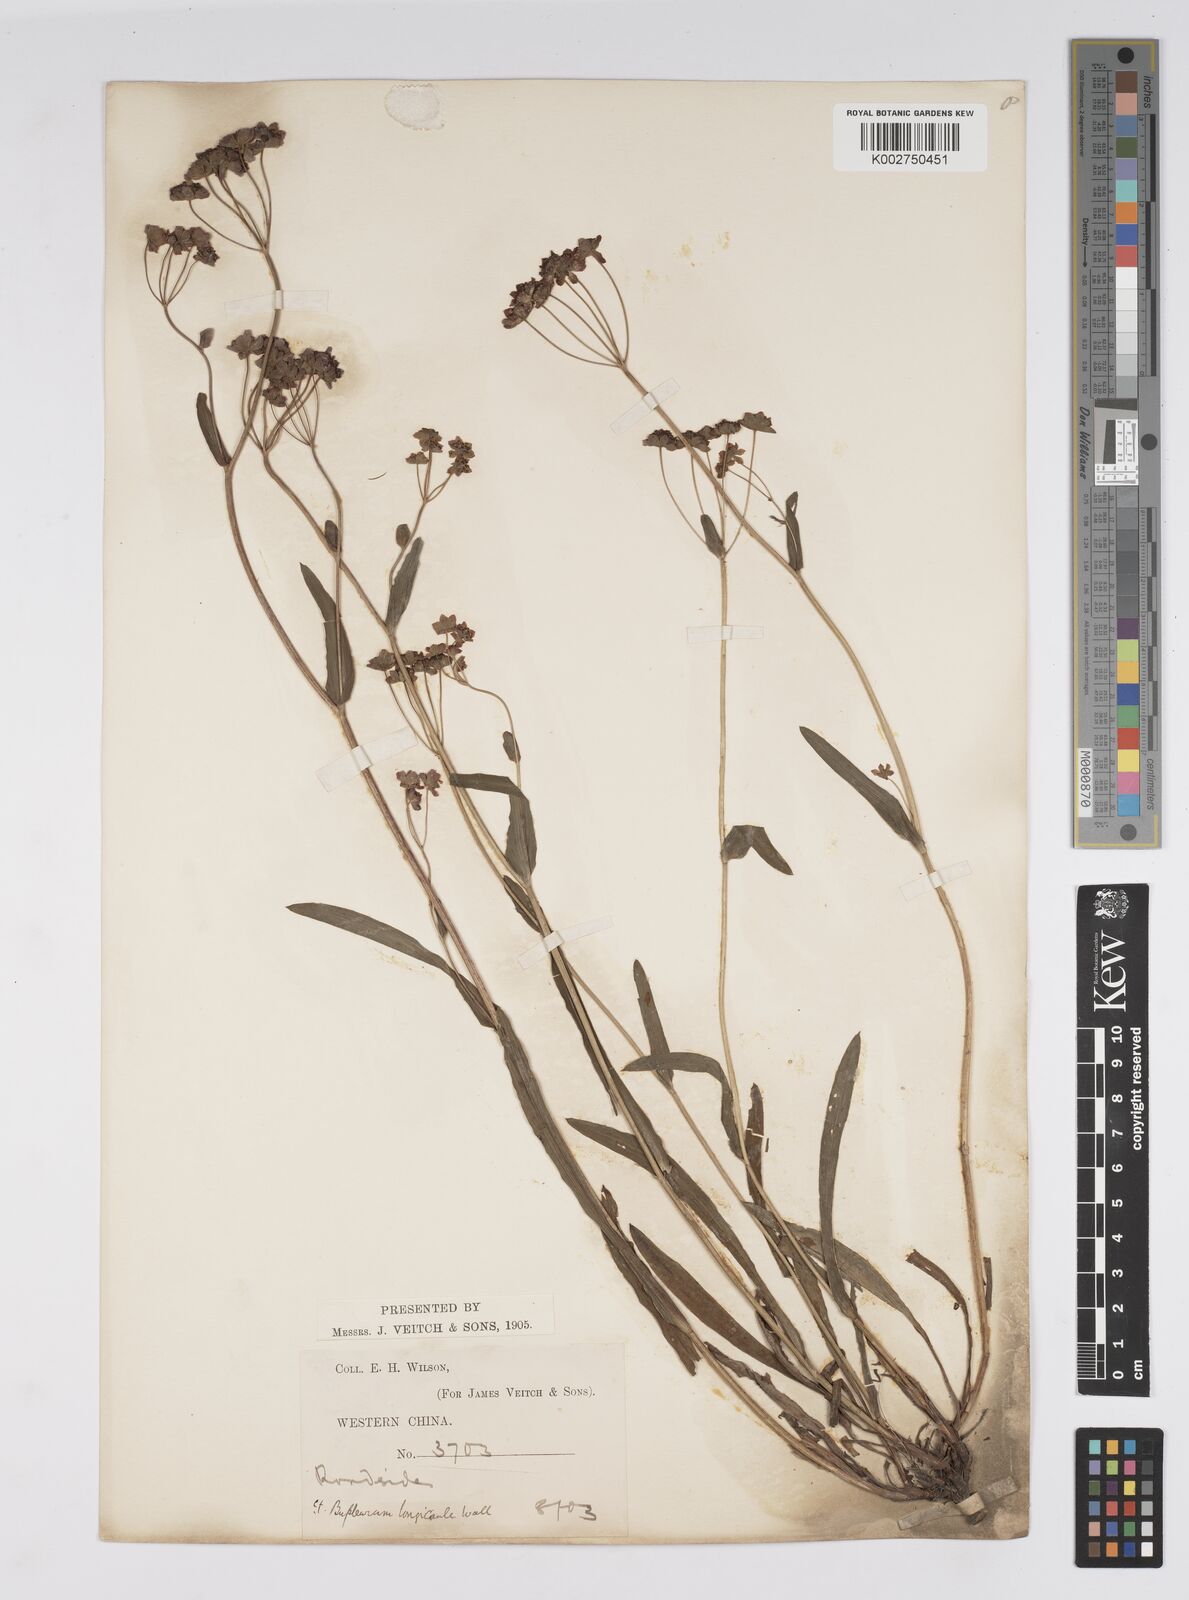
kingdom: Plantae
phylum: Tracheophyta
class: Magnoliopsida
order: Apiales
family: Apiaceae
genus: Bupleurum
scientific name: Bupleurum longicaule
